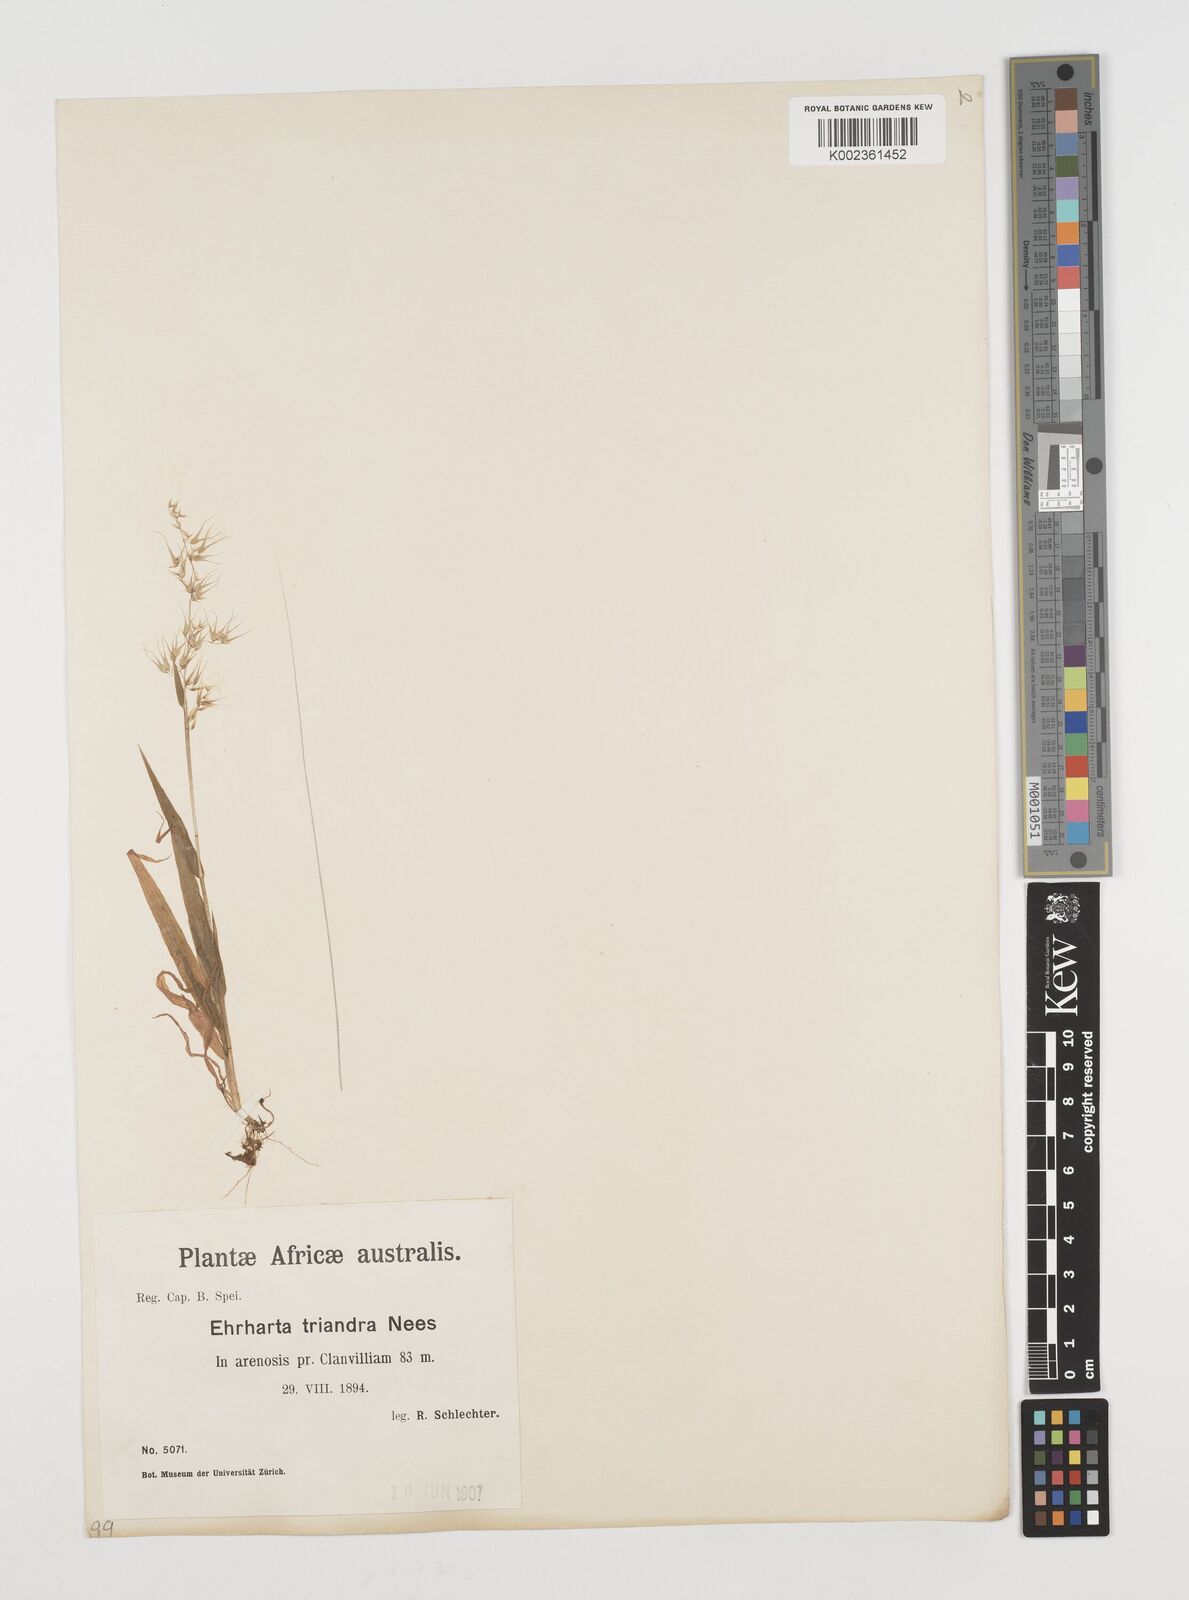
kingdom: Plantae
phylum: Tracheophyta
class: Liliopsida
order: Poales
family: Poaceae
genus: Ehrharta
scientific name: Ehrharta triandra
